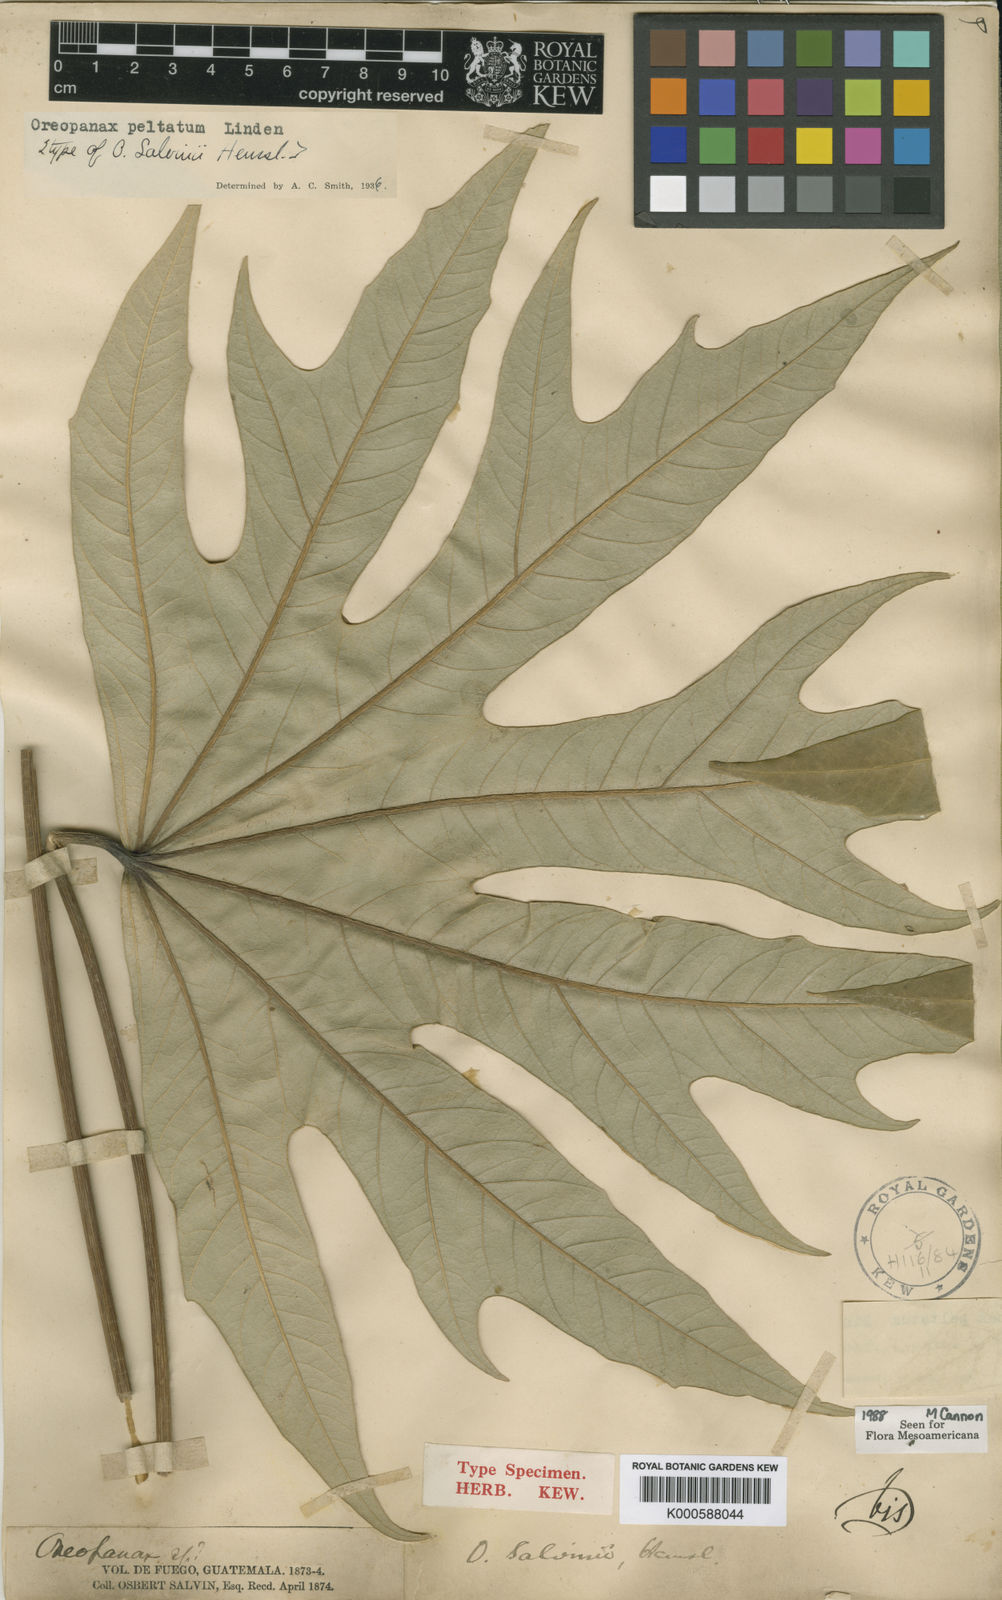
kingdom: Plantae
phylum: Tracheophyta
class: Magnoliopsida
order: Apiales
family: Araliaceae
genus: Oreopanax
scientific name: Oreopanax
